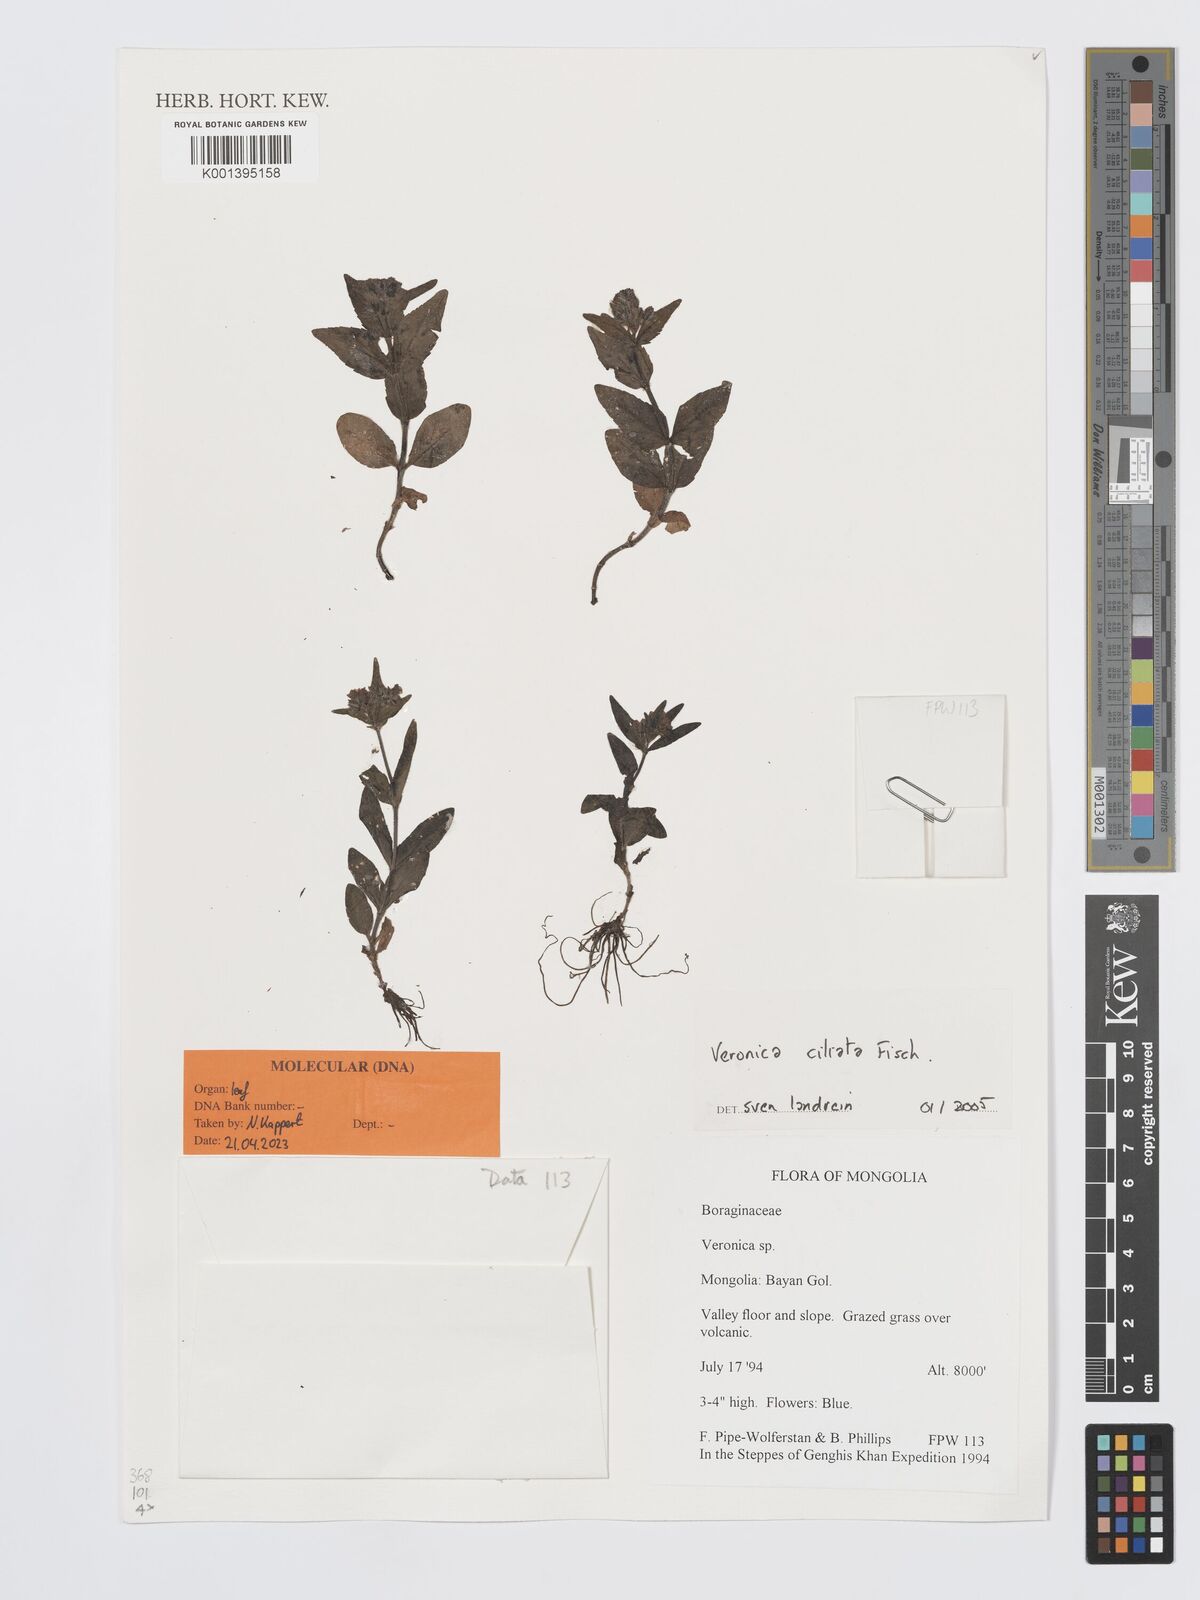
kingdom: Plantae
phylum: Tracheophyta
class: Magnoliopsida
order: Lamiales
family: Plantaginaceae
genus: Veronica
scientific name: Veronica ciliata
